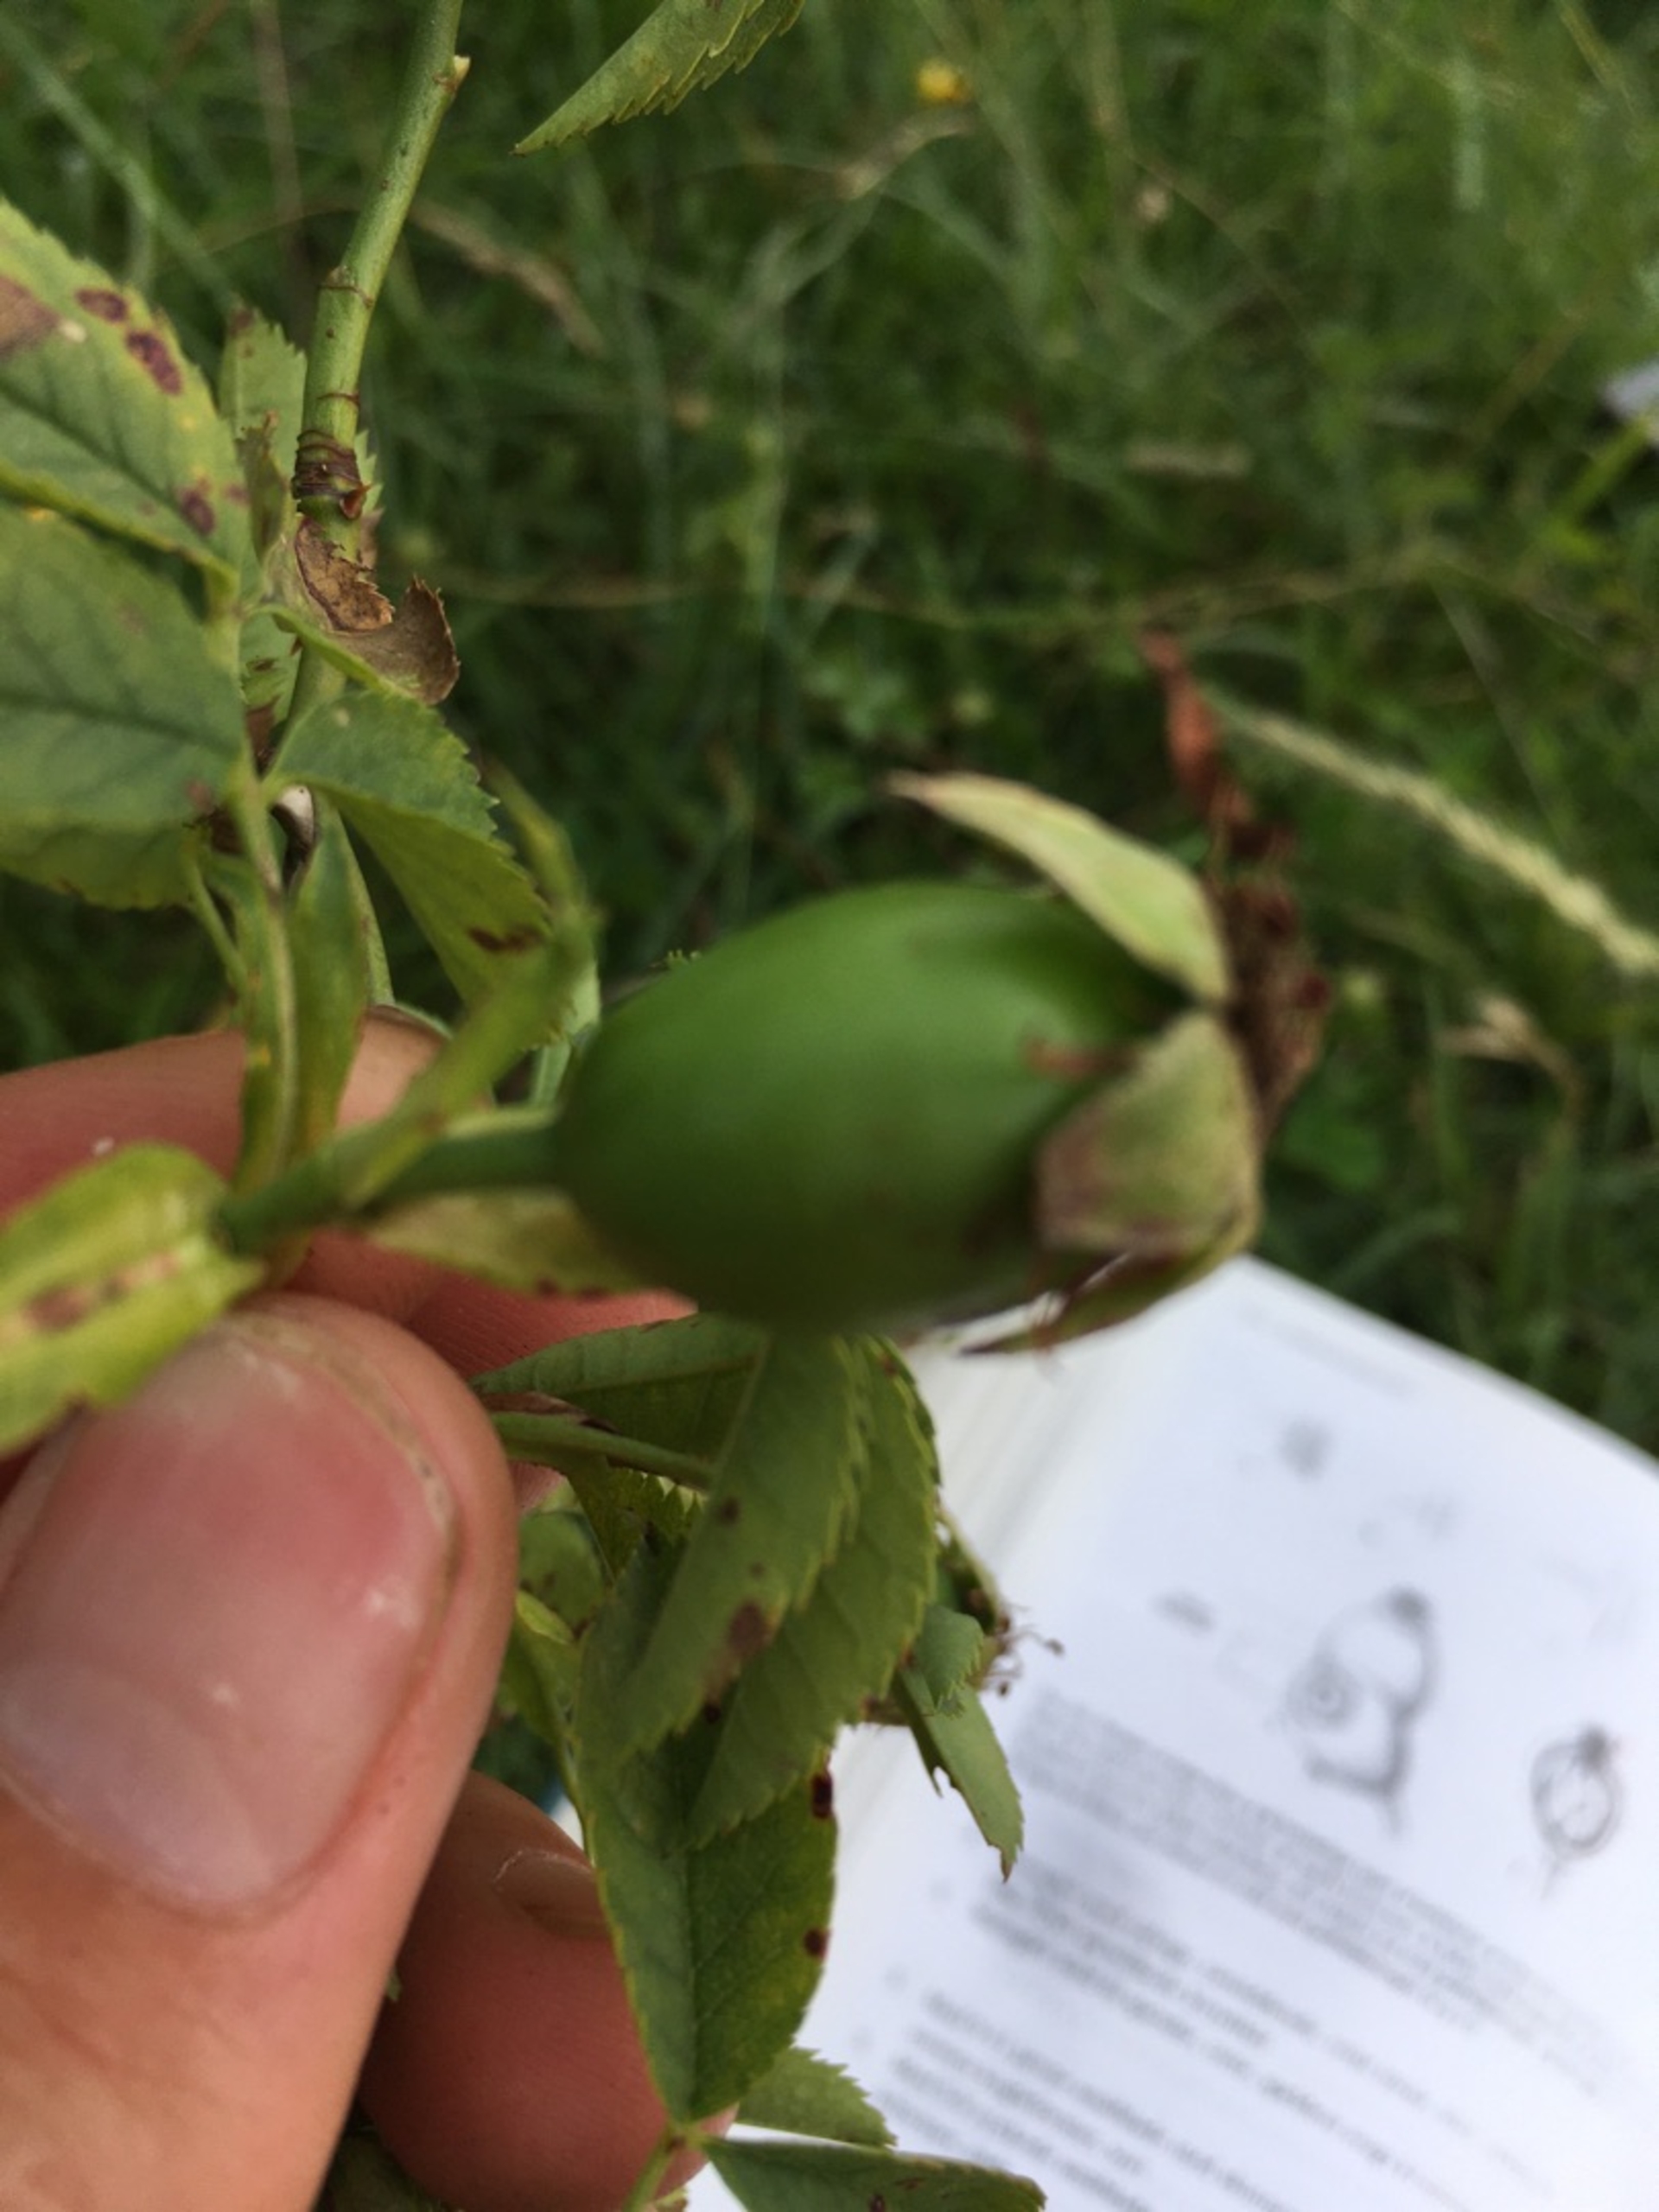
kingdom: Plantae
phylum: Tracheophyta
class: Magnoliopsida
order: Rosales
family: Rosaceae
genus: Rosa
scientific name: Rosa canina
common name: Hunde-rose
